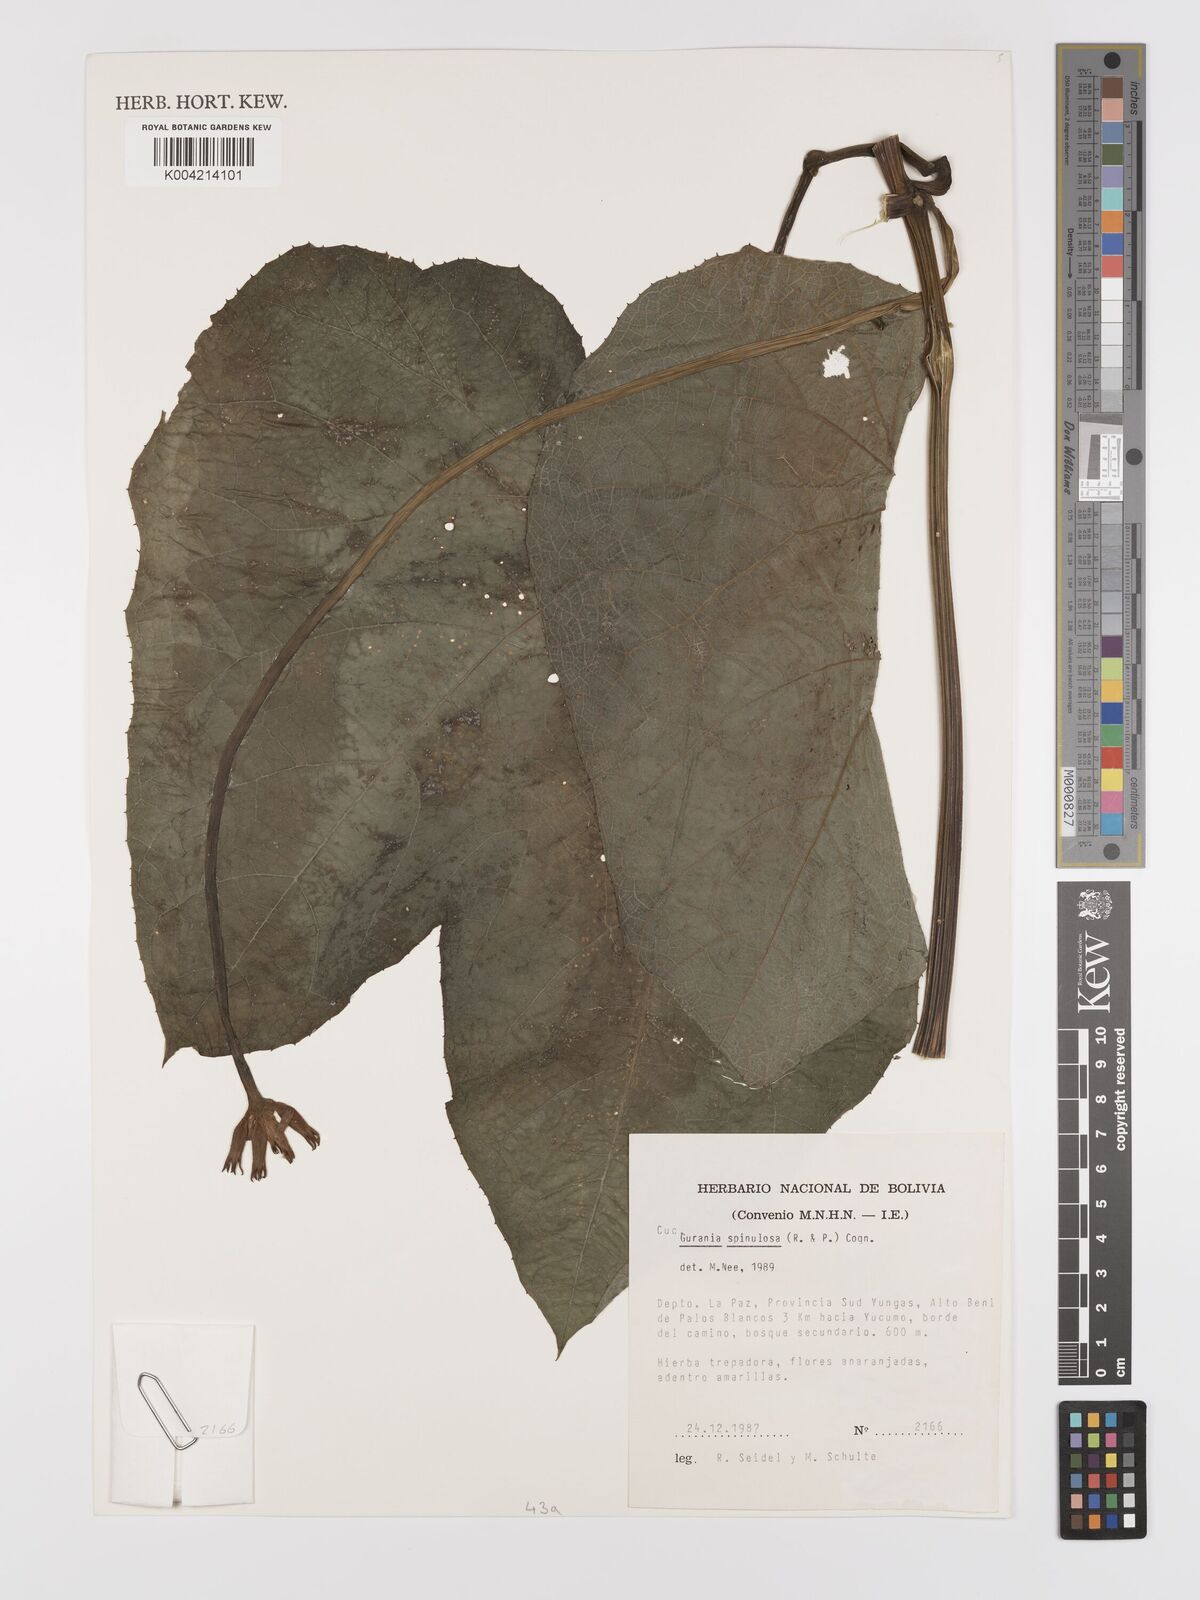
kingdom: Plantae
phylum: Tracheophyta
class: Magnoliopsida
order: Cucurbitales
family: Cucurbitaceae
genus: Gurania
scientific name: Gurania lobata
